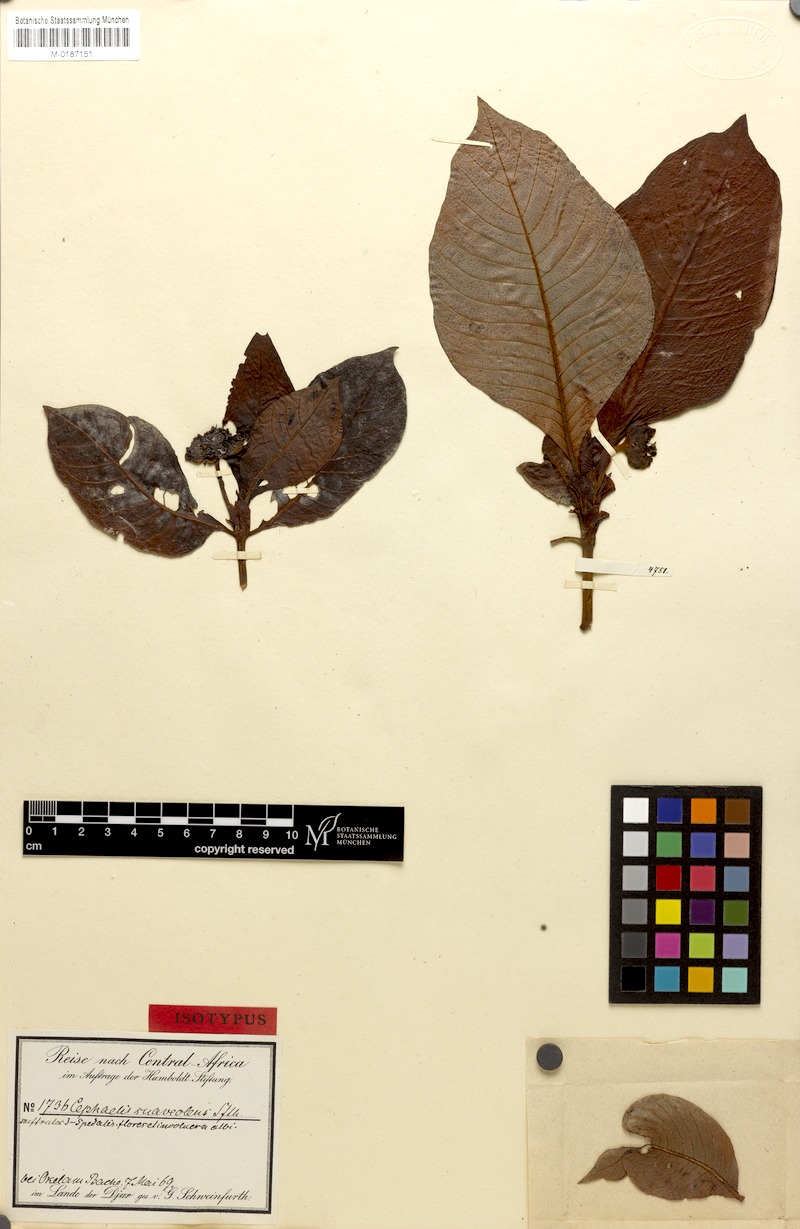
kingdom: Plantae
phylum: Tracheophyta
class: Magnoliopsida
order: Gentianales
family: Rubiaceae
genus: Psychotria
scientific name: Psychotria peduncularis
